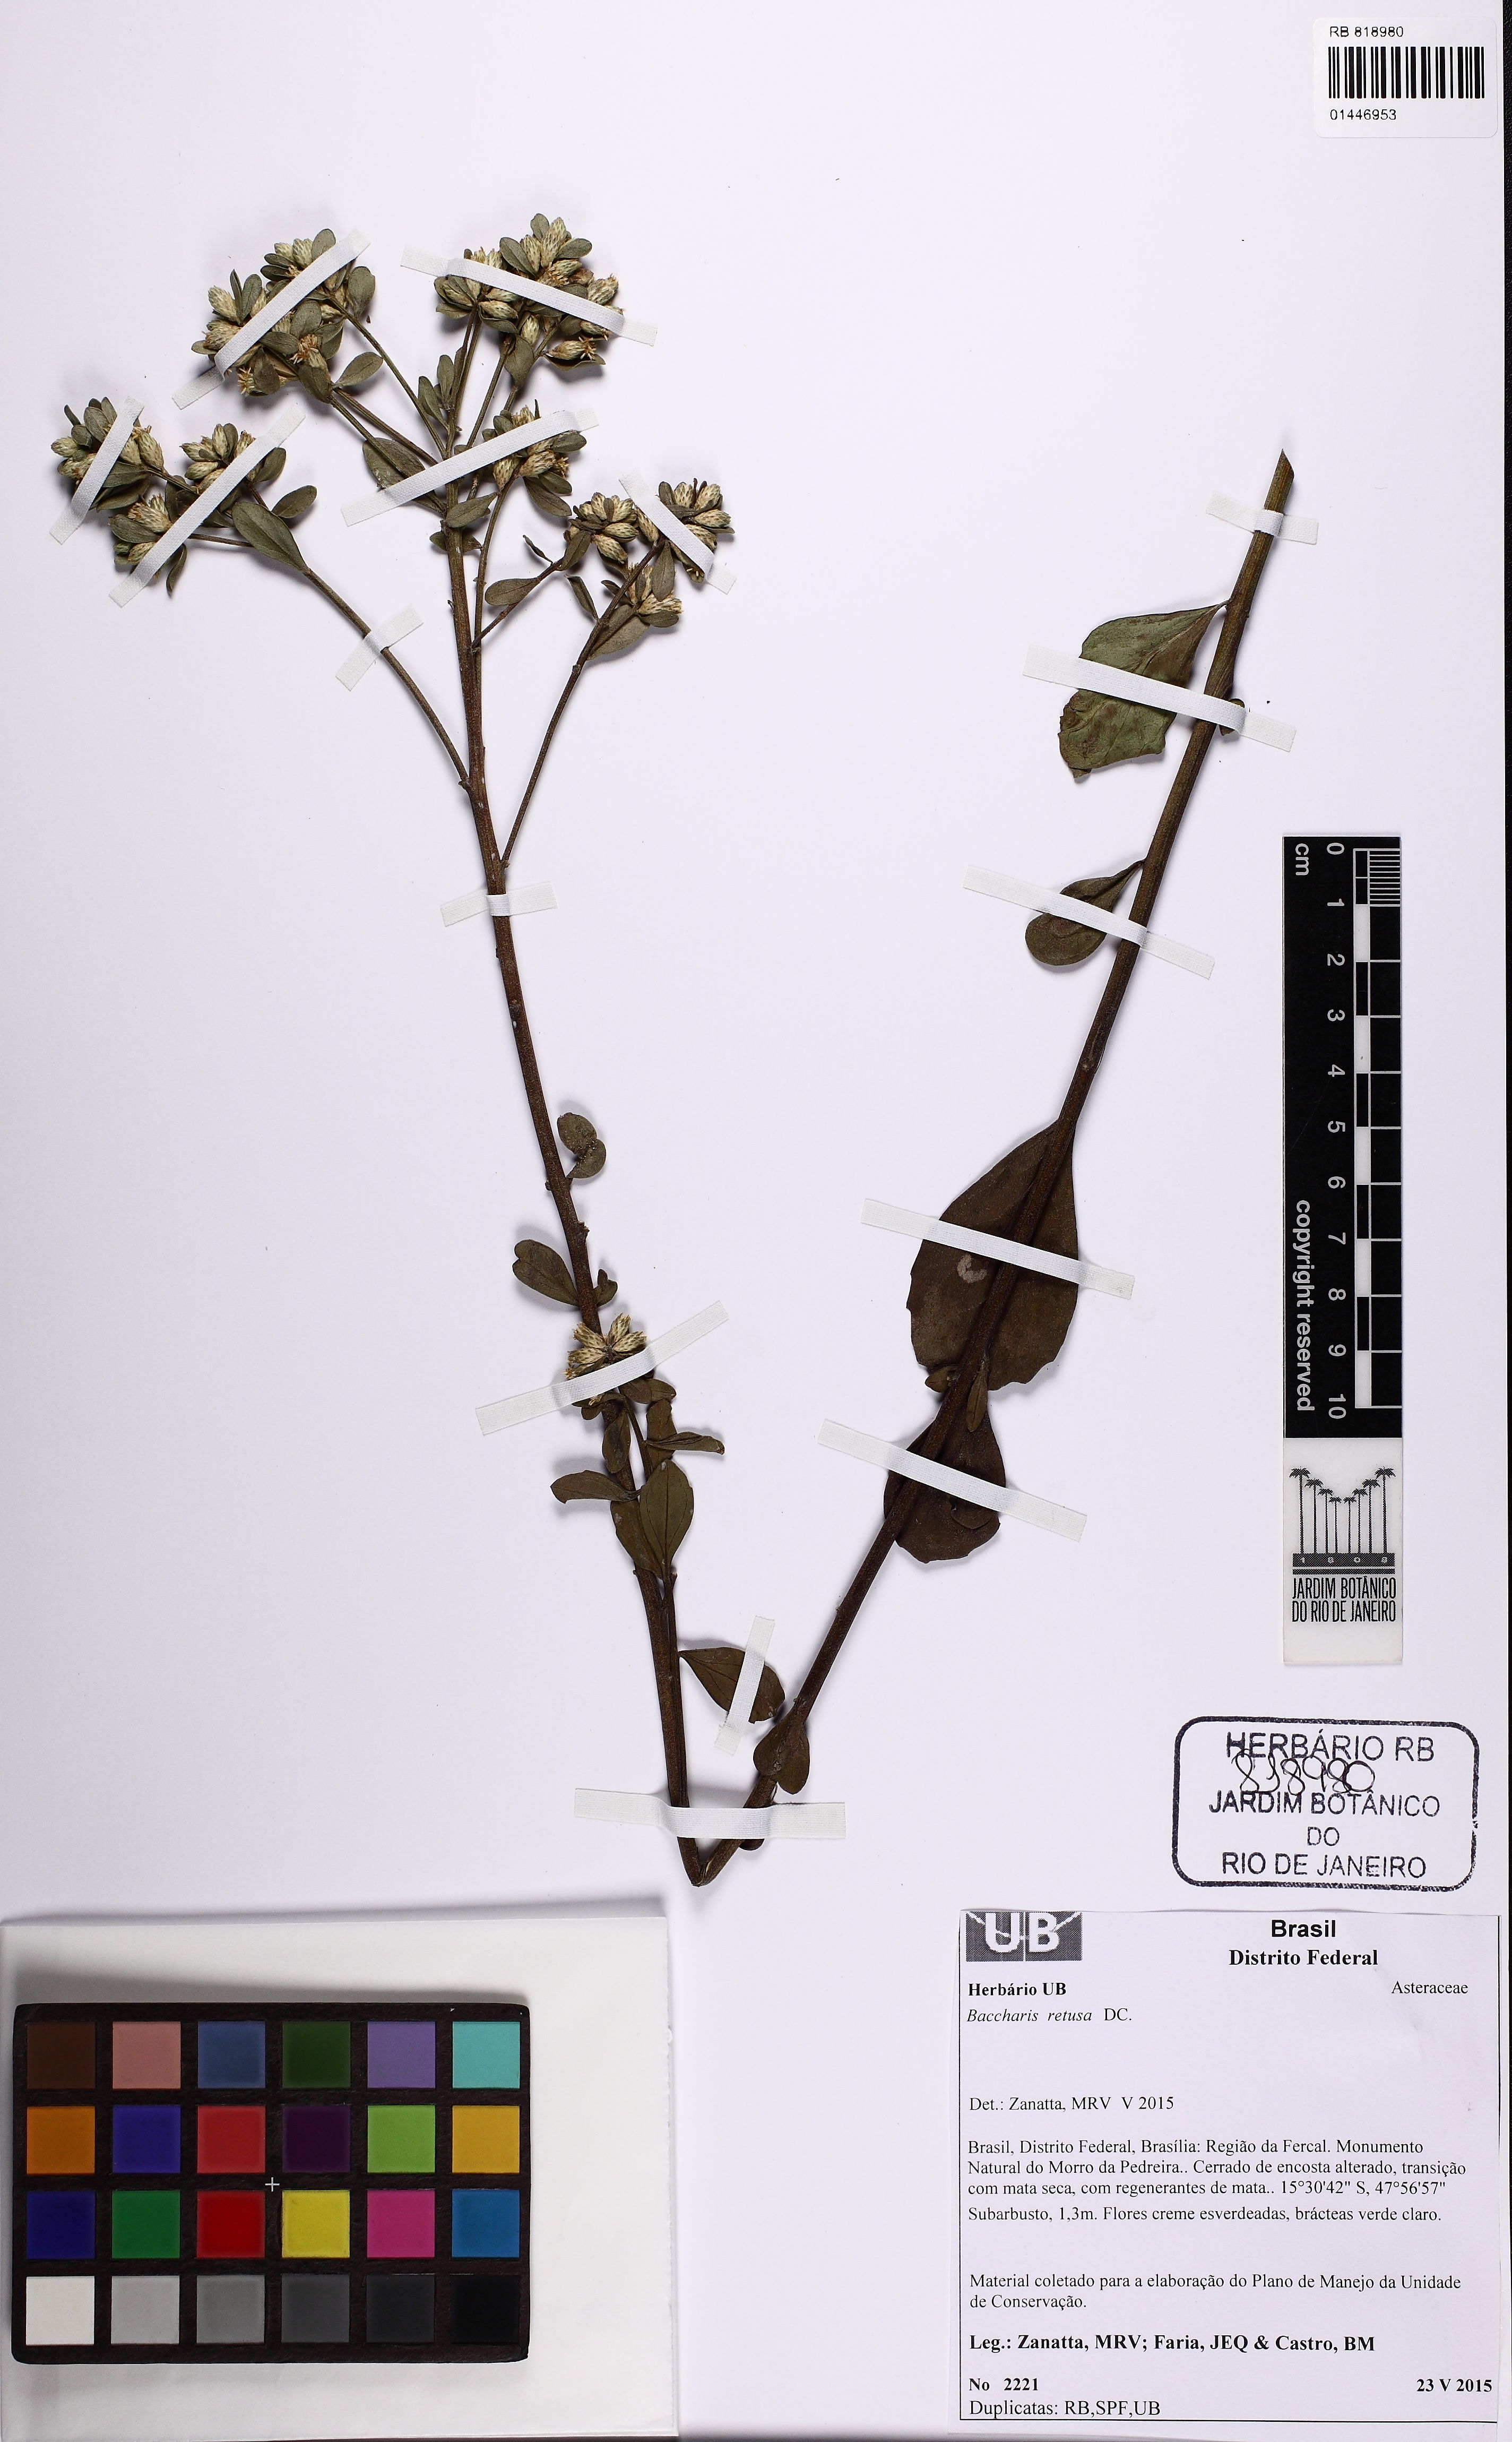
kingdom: Plantae
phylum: Tracheophyta
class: Magnoliopsida
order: Asterales
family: Asteraceae
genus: Baccharis
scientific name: Baccharis retusa
